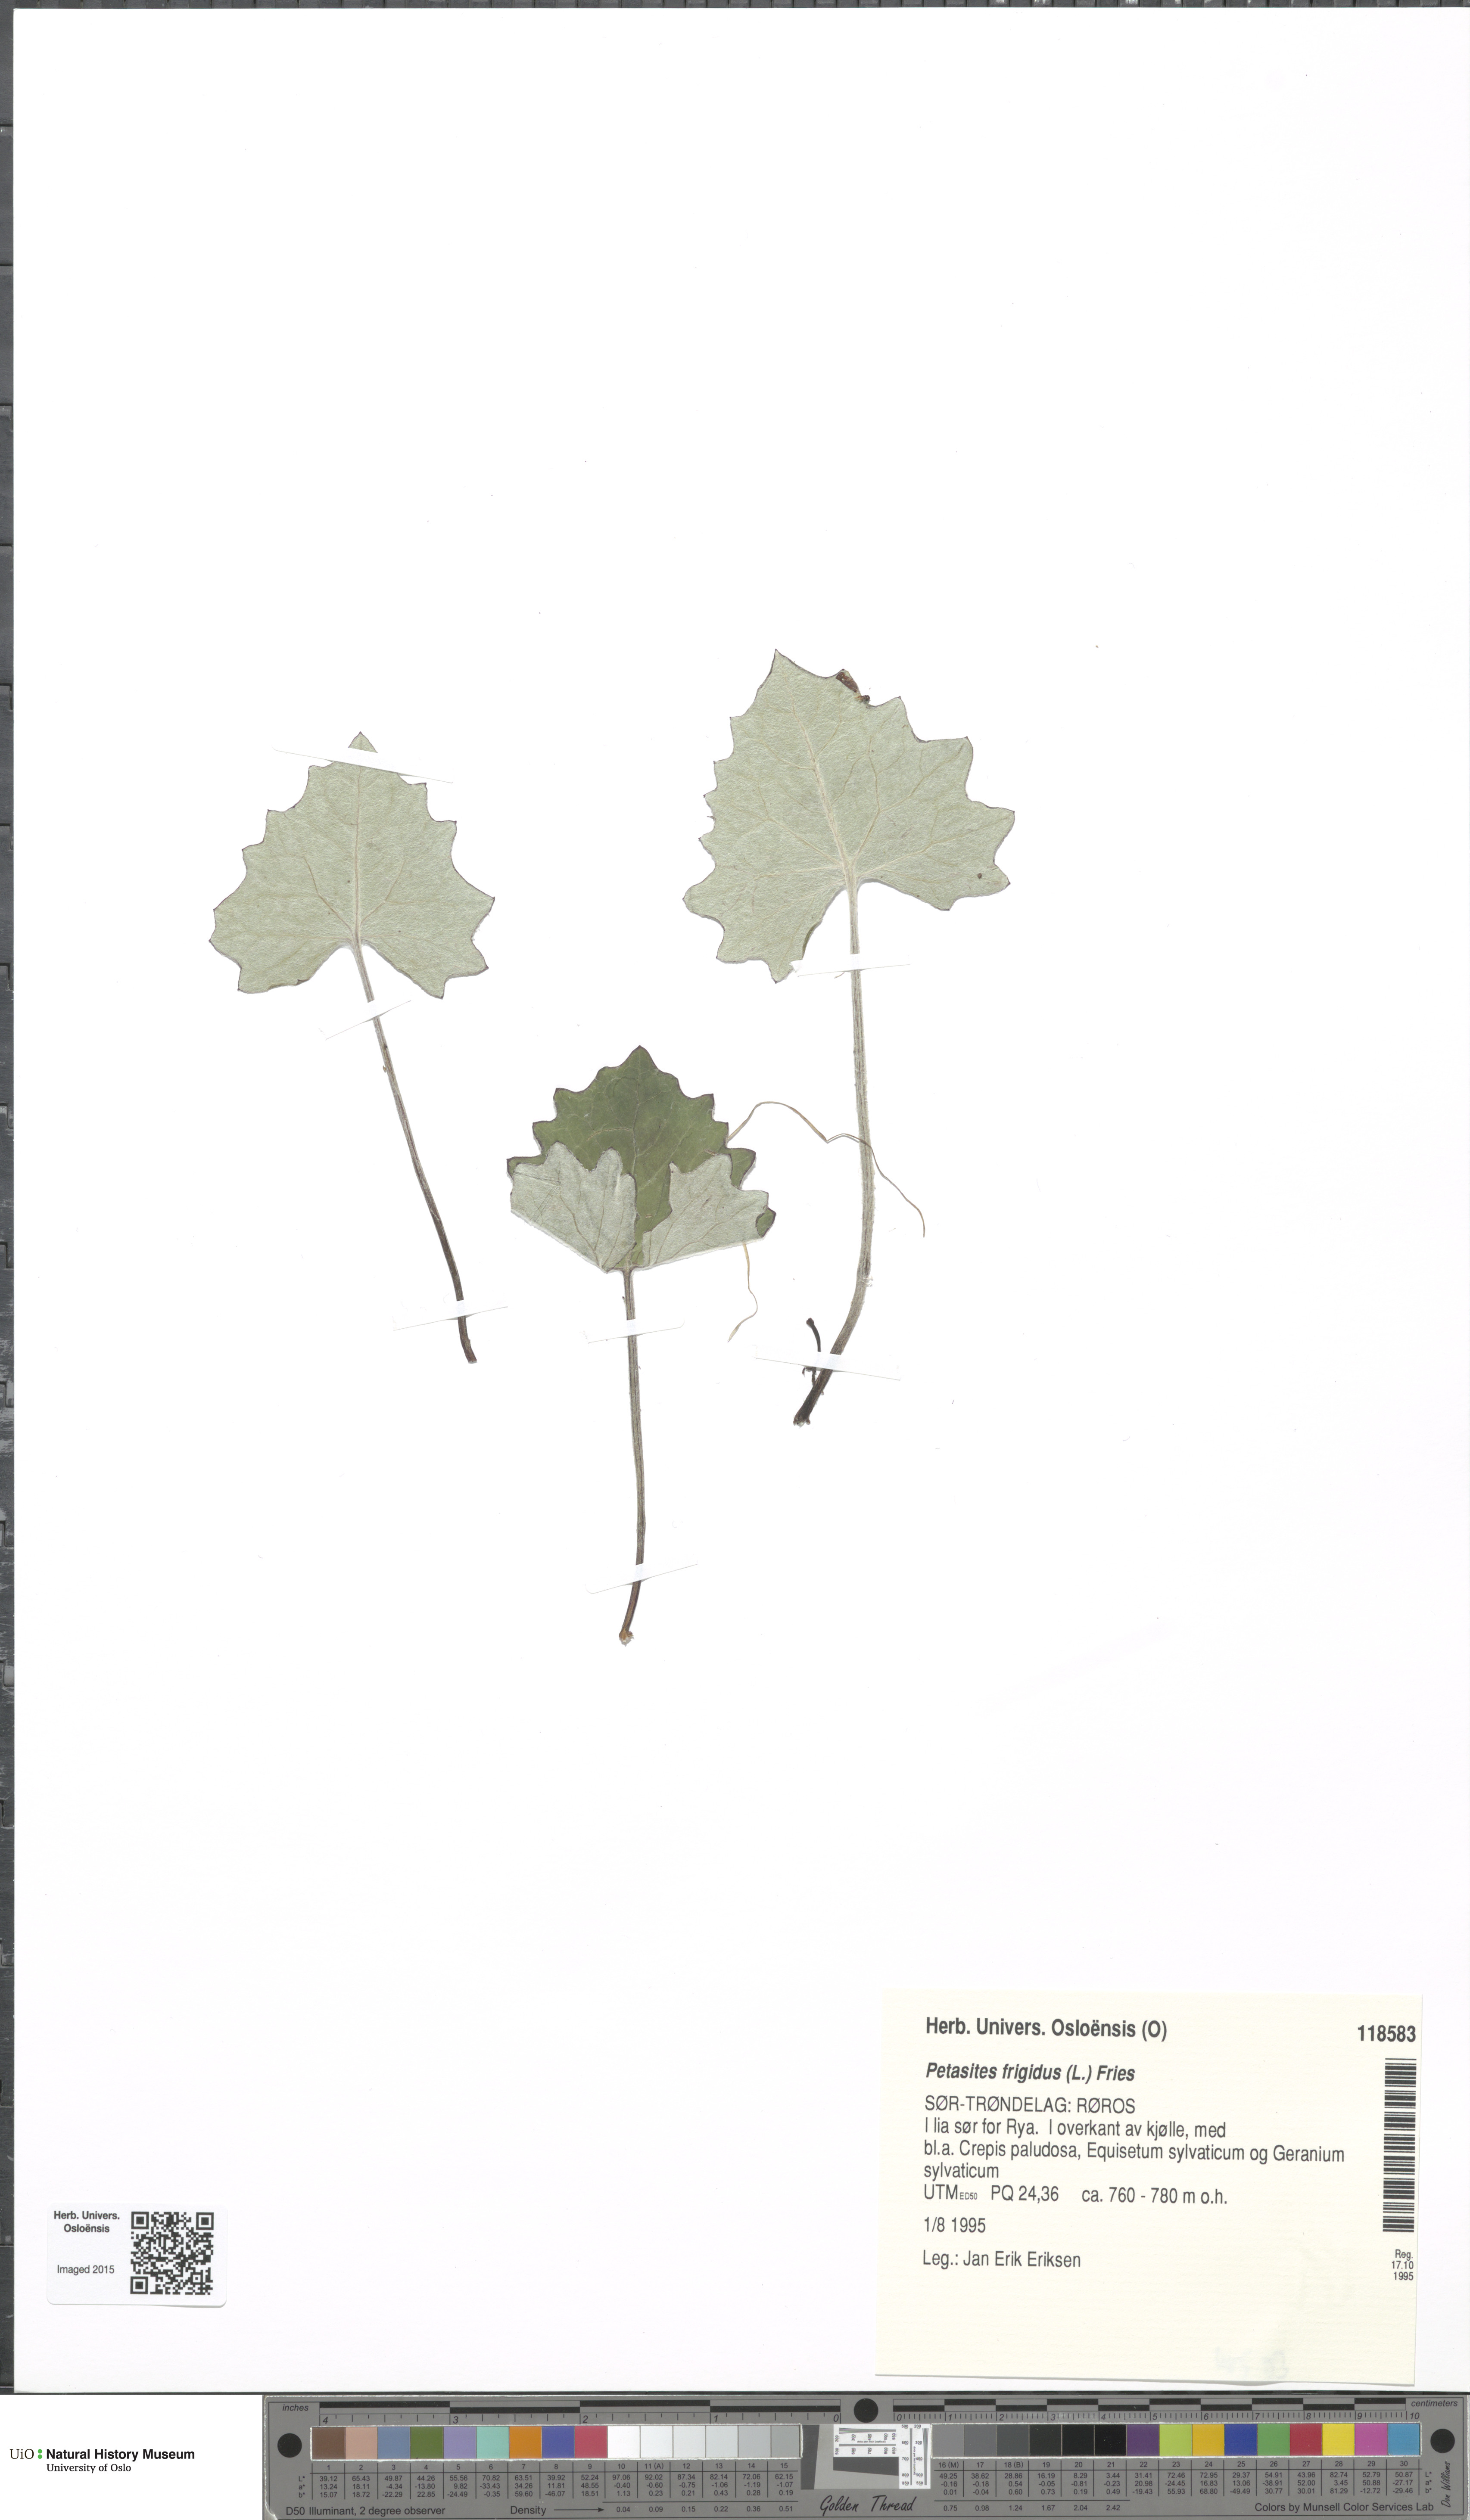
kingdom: Plantae
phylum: Tracheophyta
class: Magnoliopsida
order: Asterales
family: Asteraceae
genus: Petasites
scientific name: Petasites frigidus
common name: Arctic butterbur
